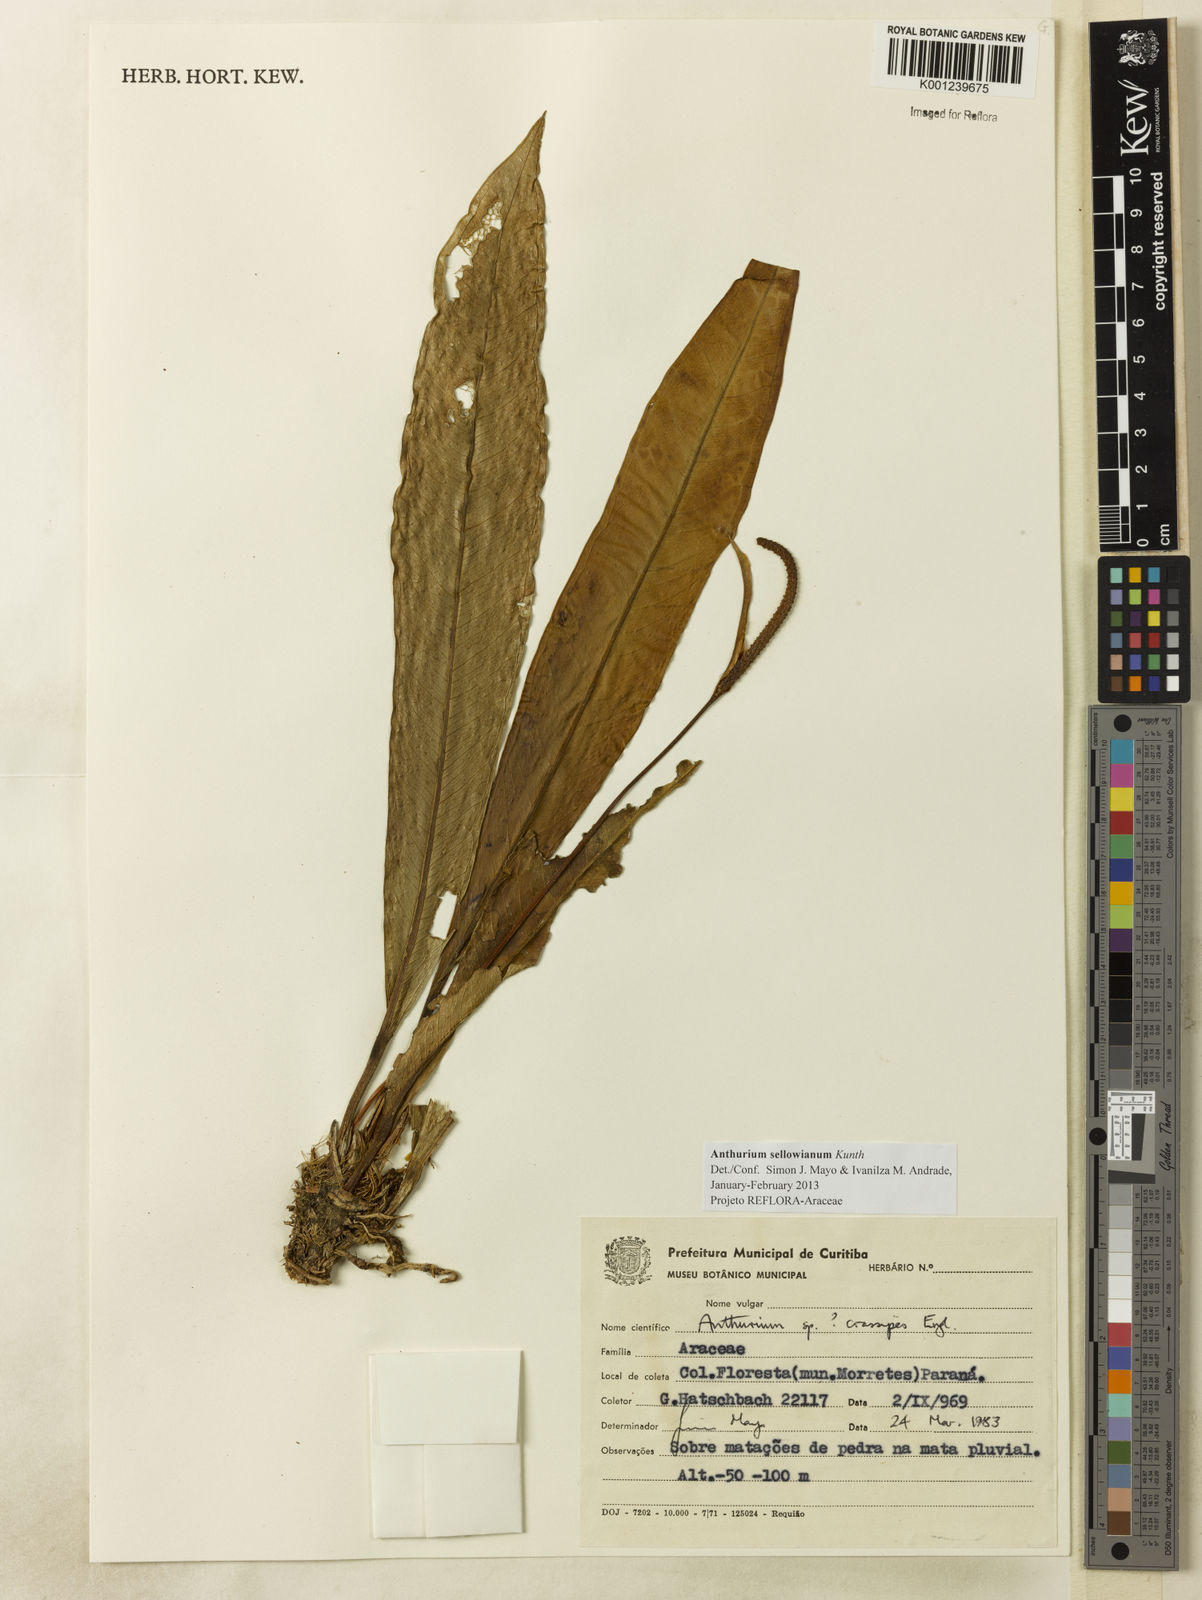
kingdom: Plantae
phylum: Tracheophyta
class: Liliopsida
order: Alismatales
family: Araceae
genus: Anthurium
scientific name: Anthurium sellowianum
